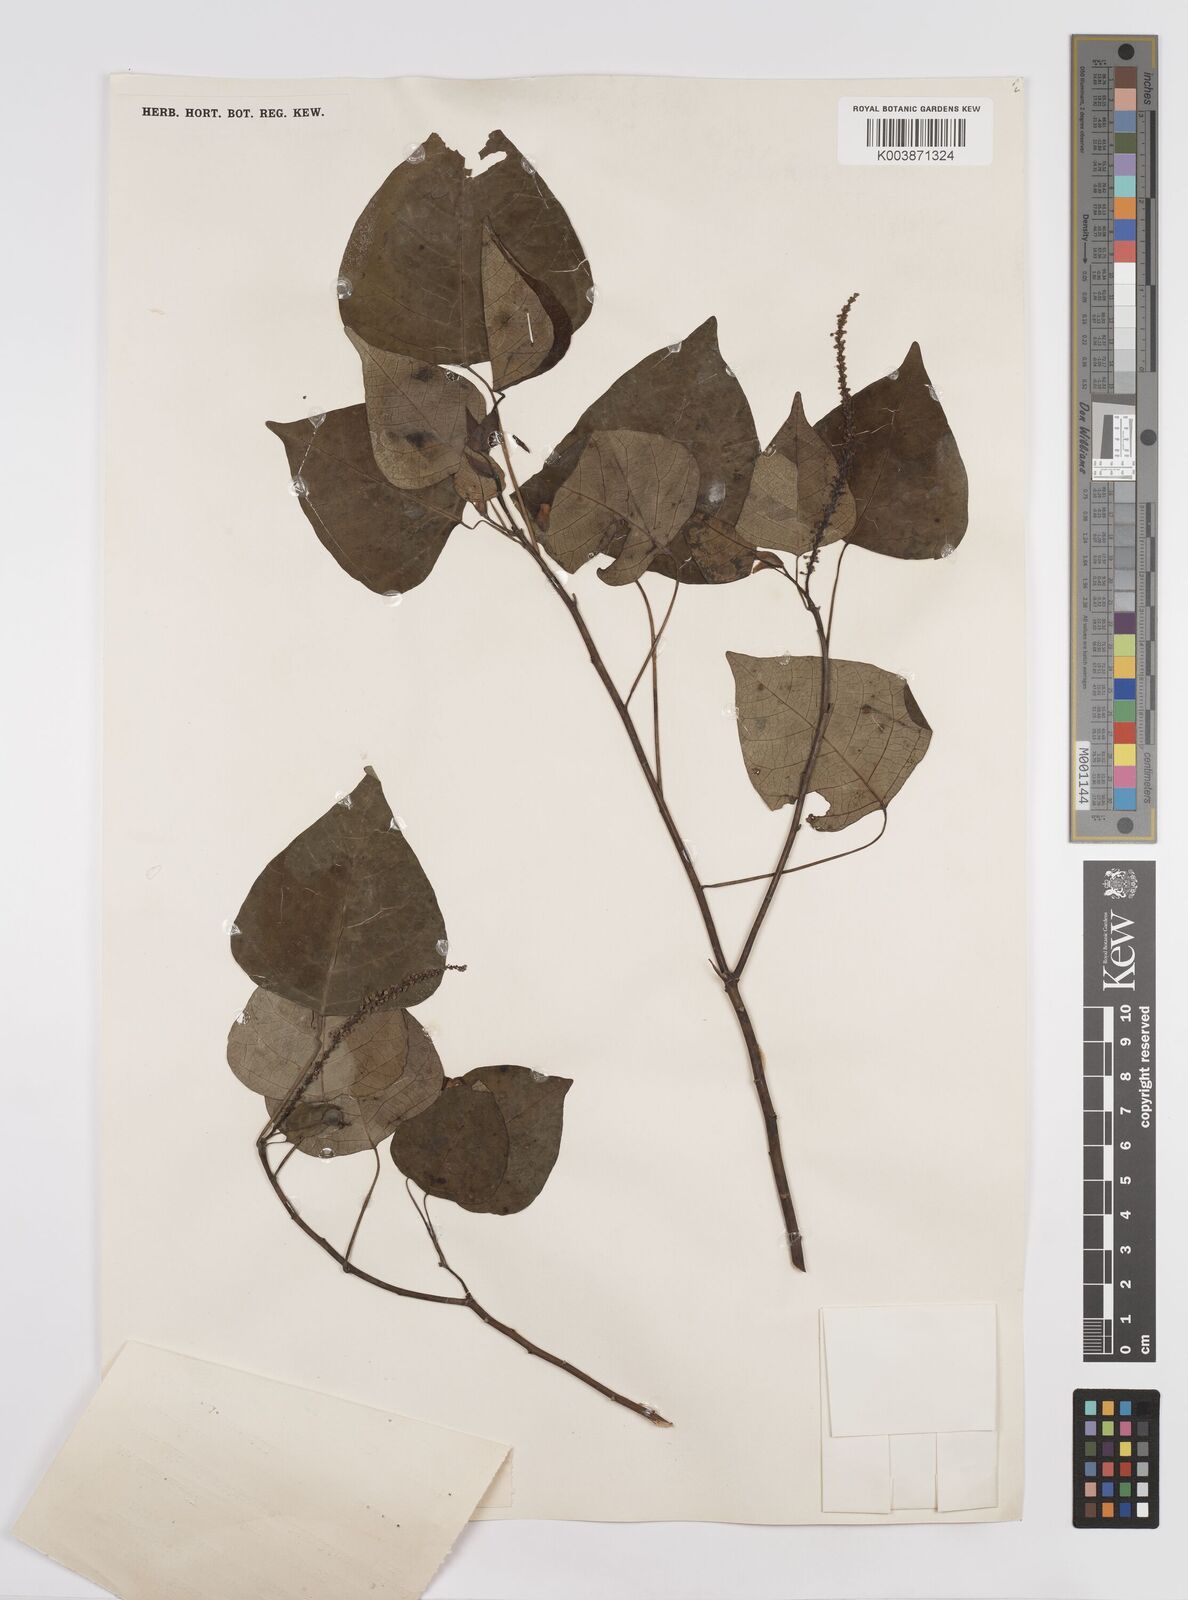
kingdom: Plantae
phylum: Tracheophyta
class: Magnoliopsida
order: Malpighiales
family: Euphorbiaceae
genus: Homalanthus
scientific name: Homalanthus populneus
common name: Spurge
